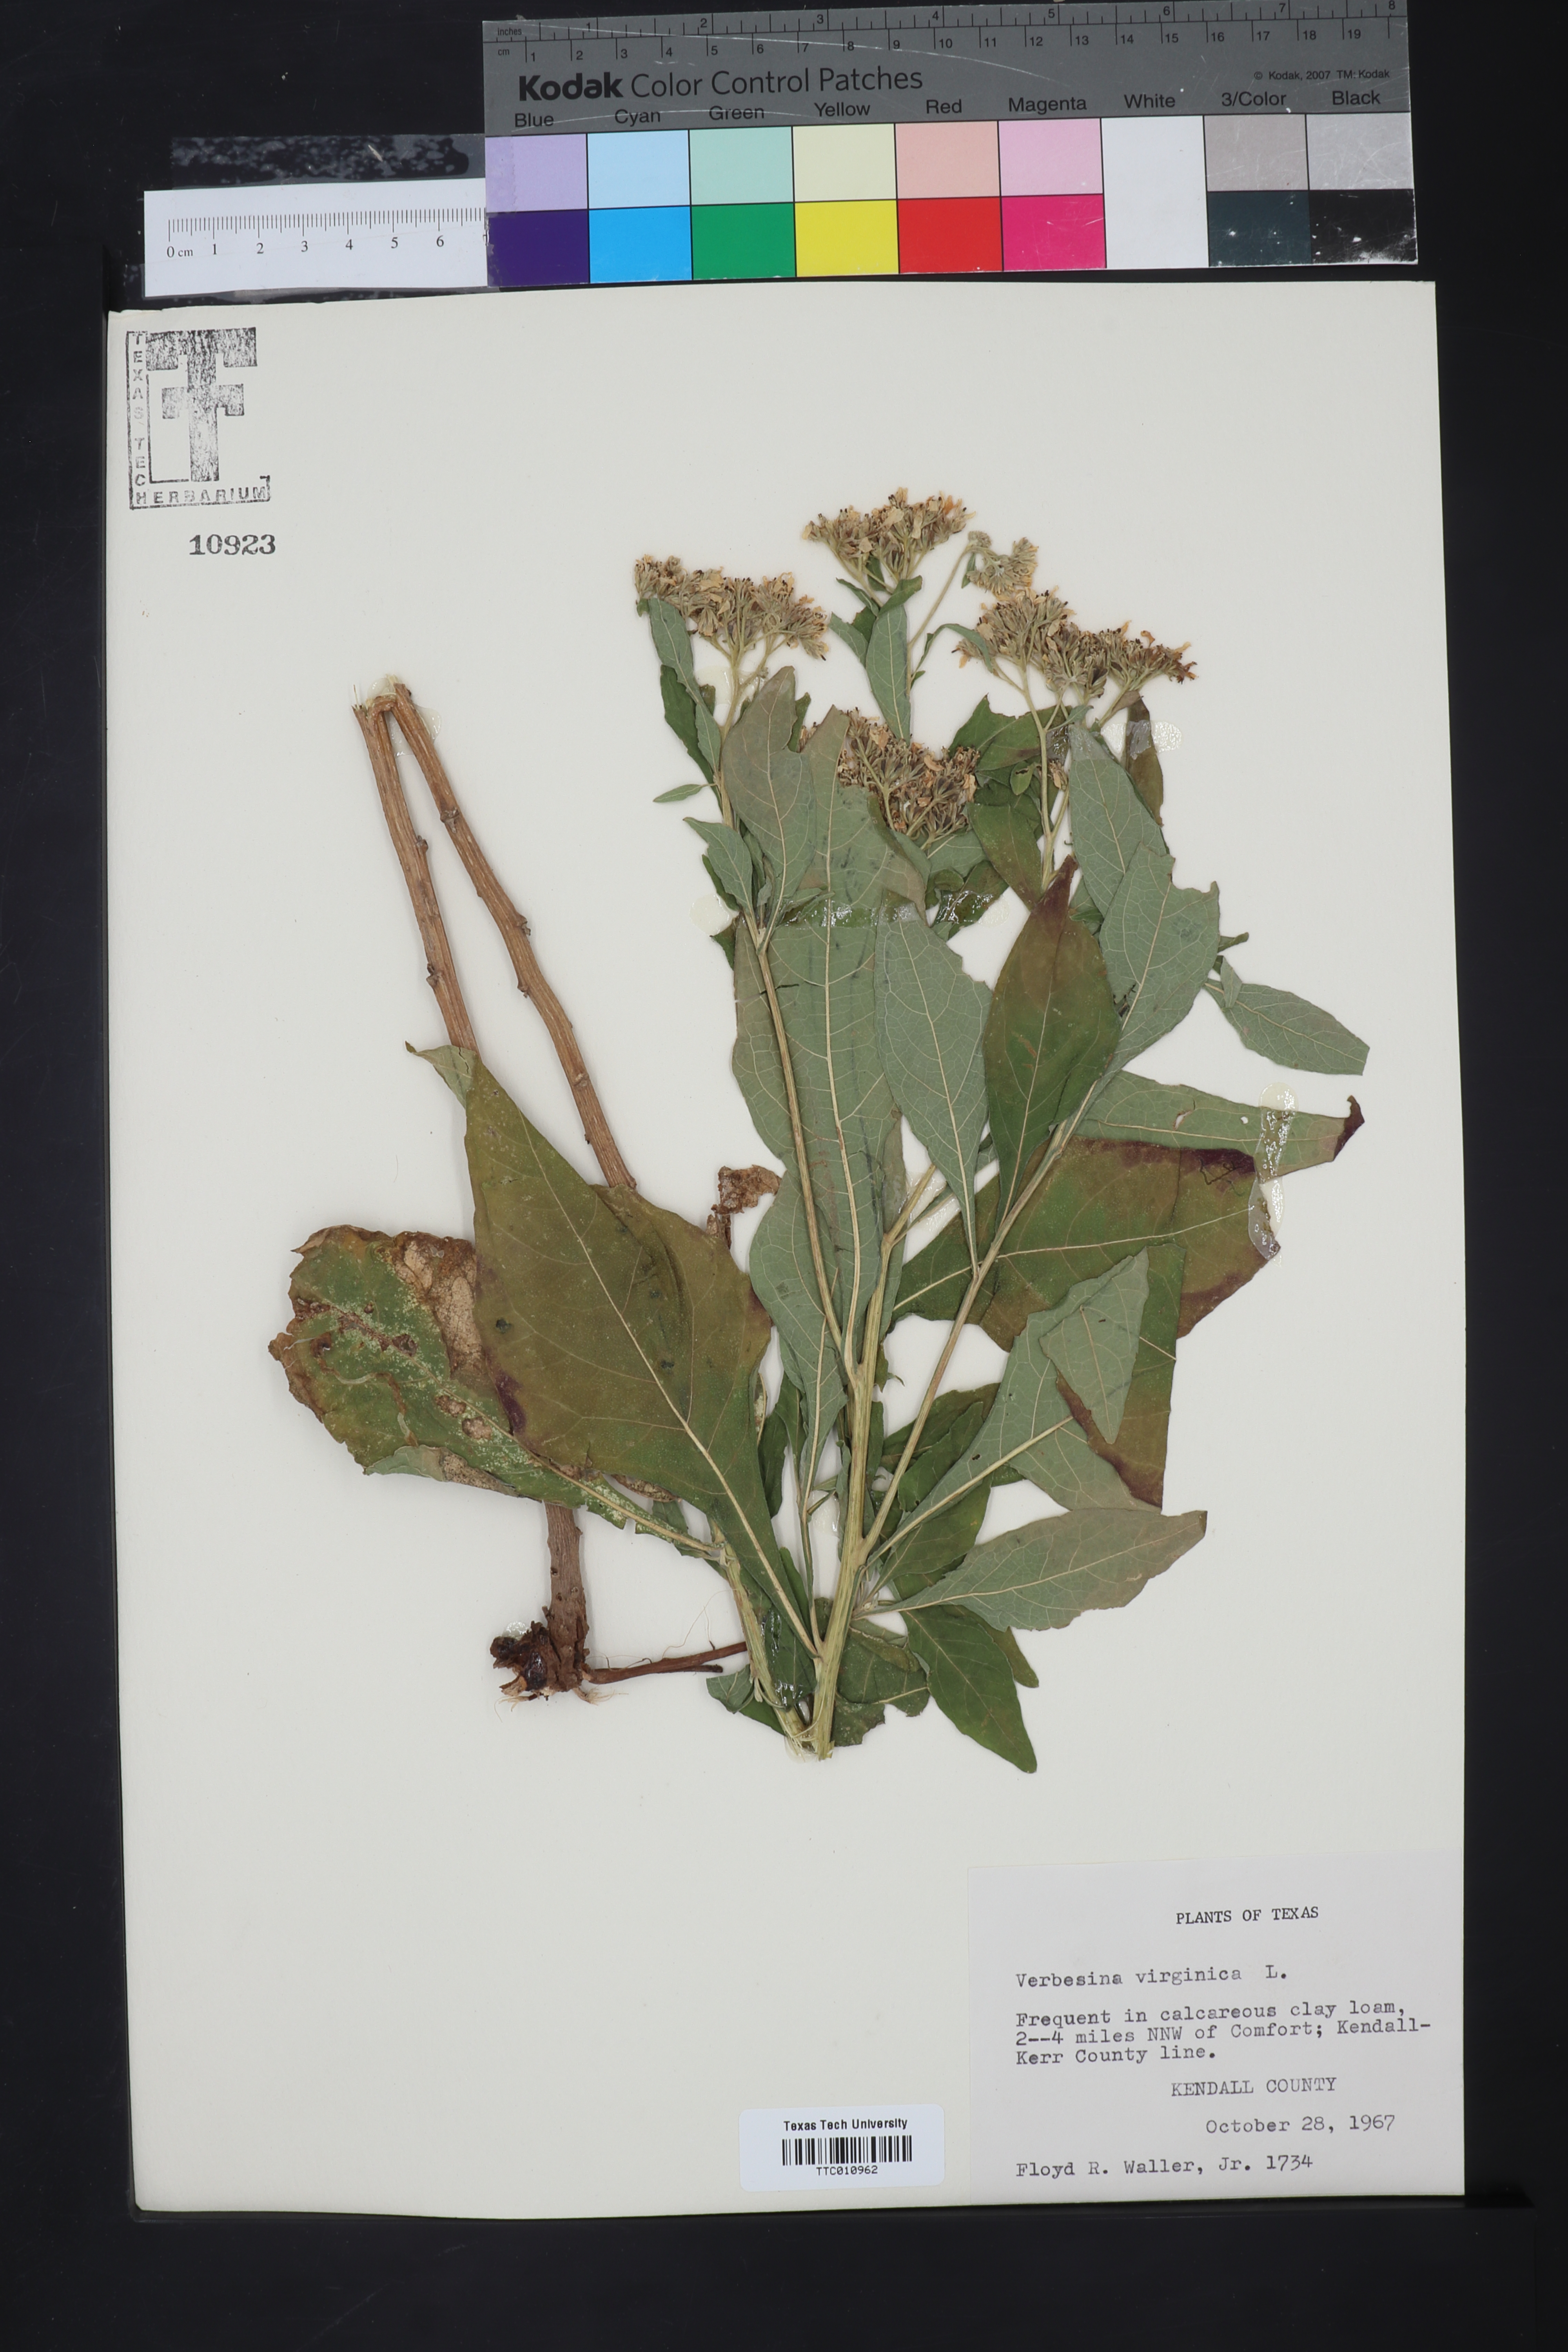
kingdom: Plantae
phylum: Tracheophyta
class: Magnoliopsida
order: Asterales
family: Asteraceae
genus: Verbesina
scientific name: Verbesina virginica
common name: Frostweed
